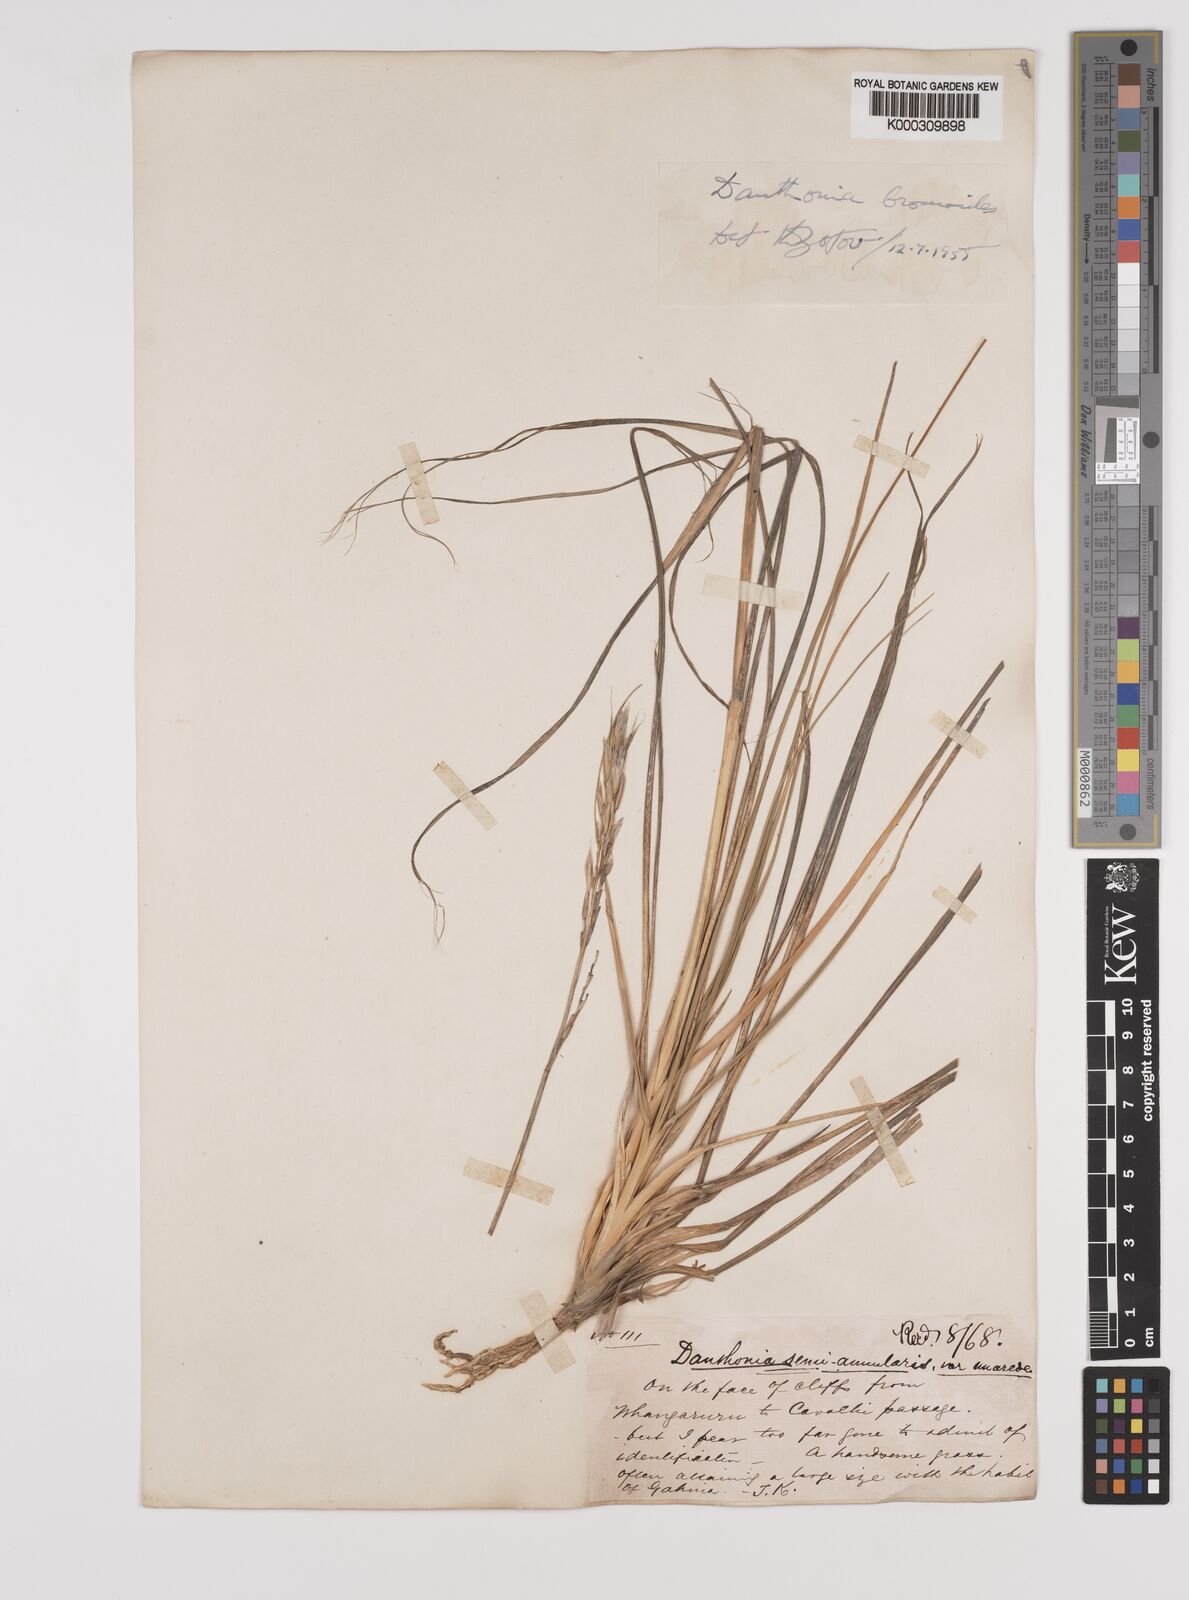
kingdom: Plantae
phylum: Tracheophyta
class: Liliopsida
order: Poales
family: Poaceae
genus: Chionochloa
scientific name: Chionochloa bromoides
